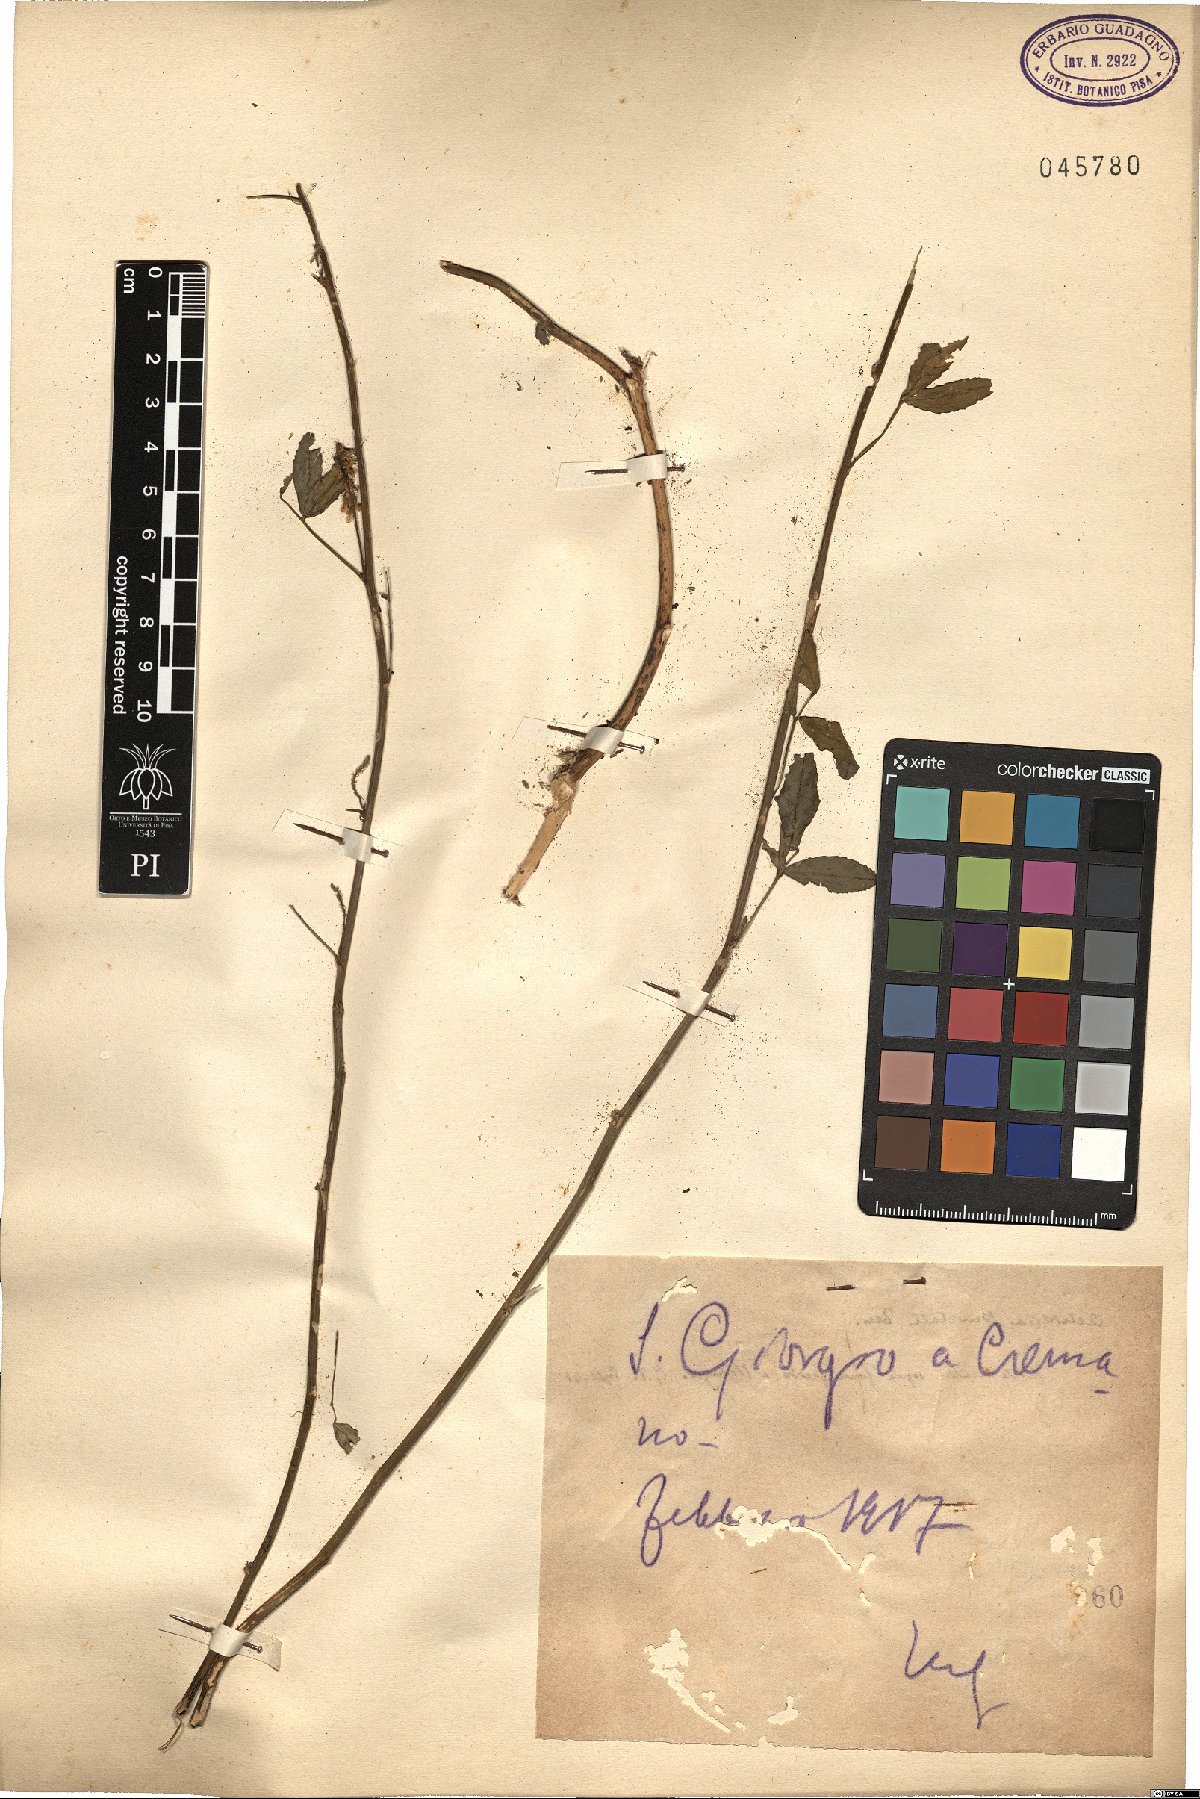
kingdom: Plantae
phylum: Tracheophyta
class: Magnoliopsida
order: Fabales
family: Fabaceae
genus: Melilotus
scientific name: Melilotus
